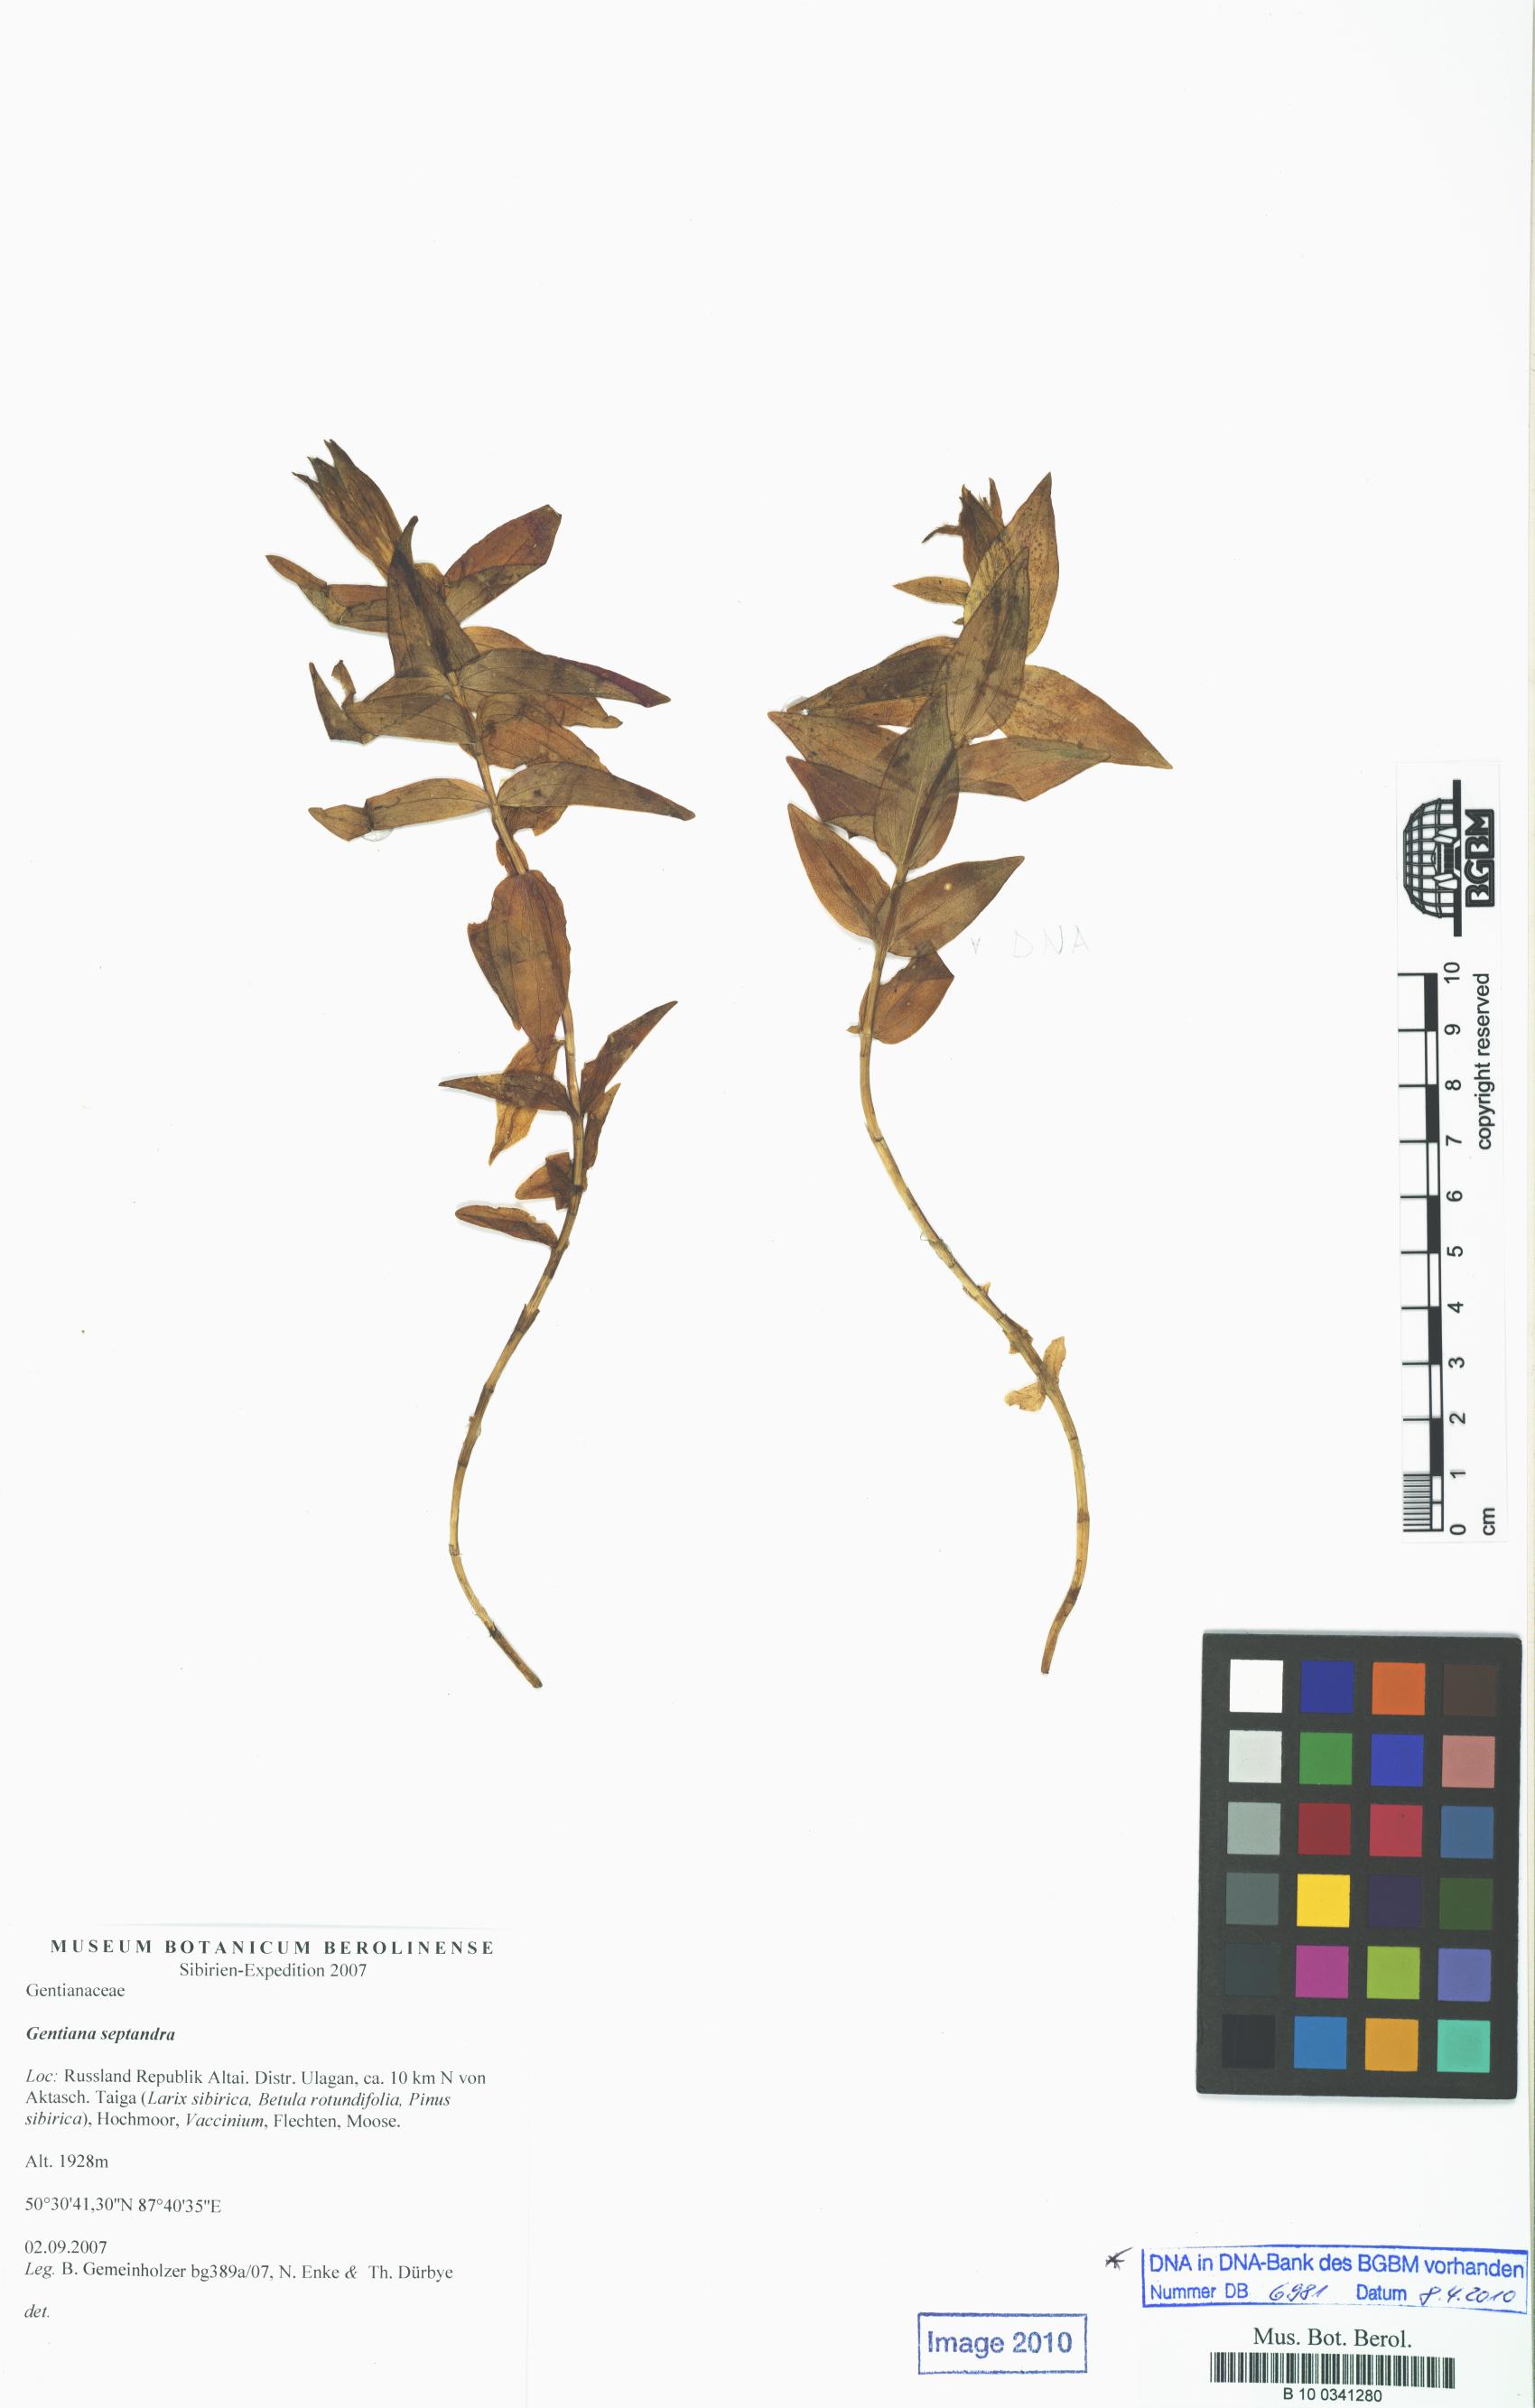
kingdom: Plantae
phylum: Tracheophyta
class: Magnoliopsida
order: Gentianales
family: Gentianaceae
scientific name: Gentianaceae
